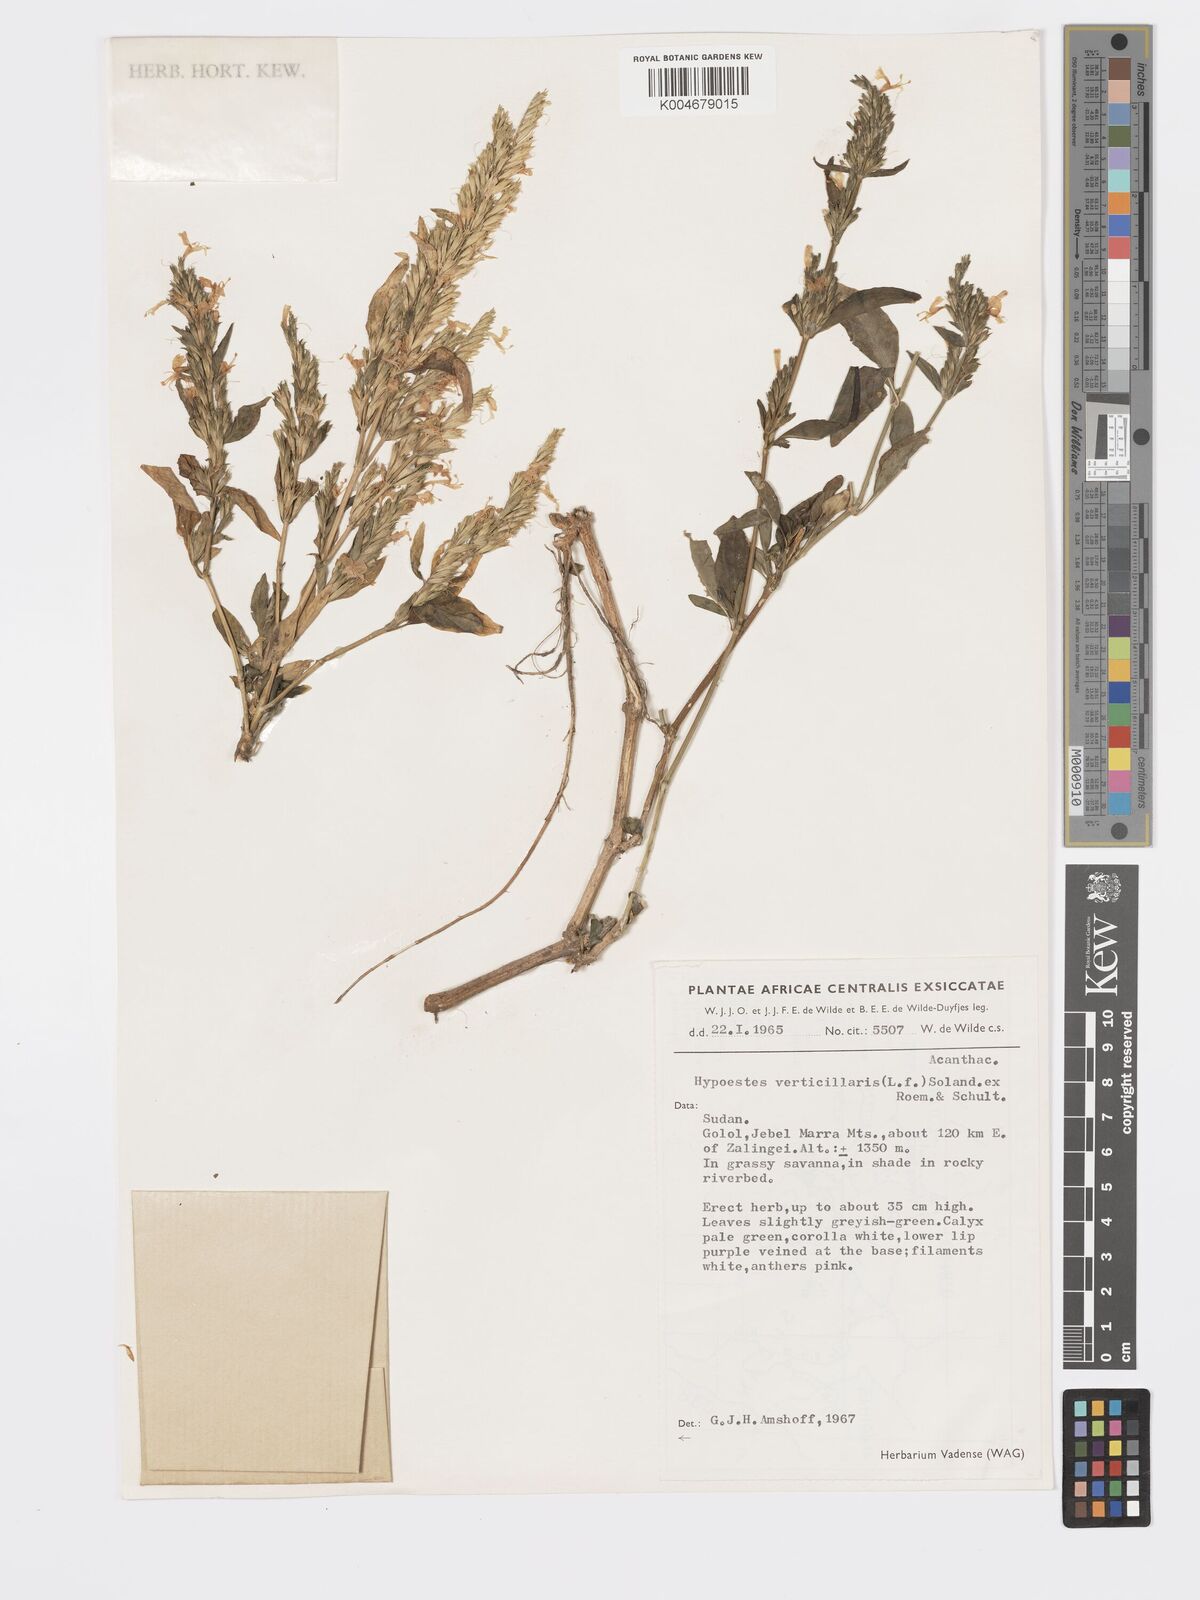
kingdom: Plantae
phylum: Tracheophyta
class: Magnoliopsida
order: Lamiales
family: Acanthaceae
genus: Hypoestes
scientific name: Hypoestes
